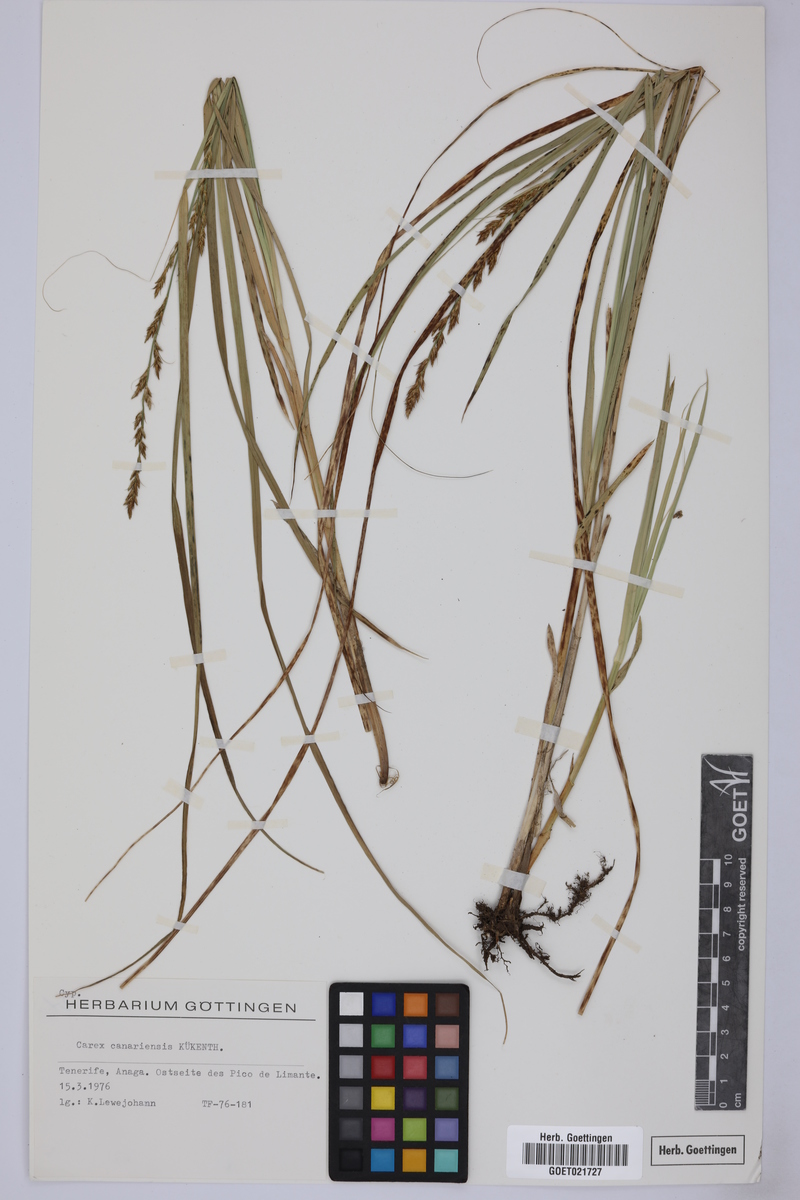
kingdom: Plantae
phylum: Tracheophyta
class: Liliopsida
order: Poales
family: Cyperaceae
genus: Carex
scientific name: Carex canariensis
